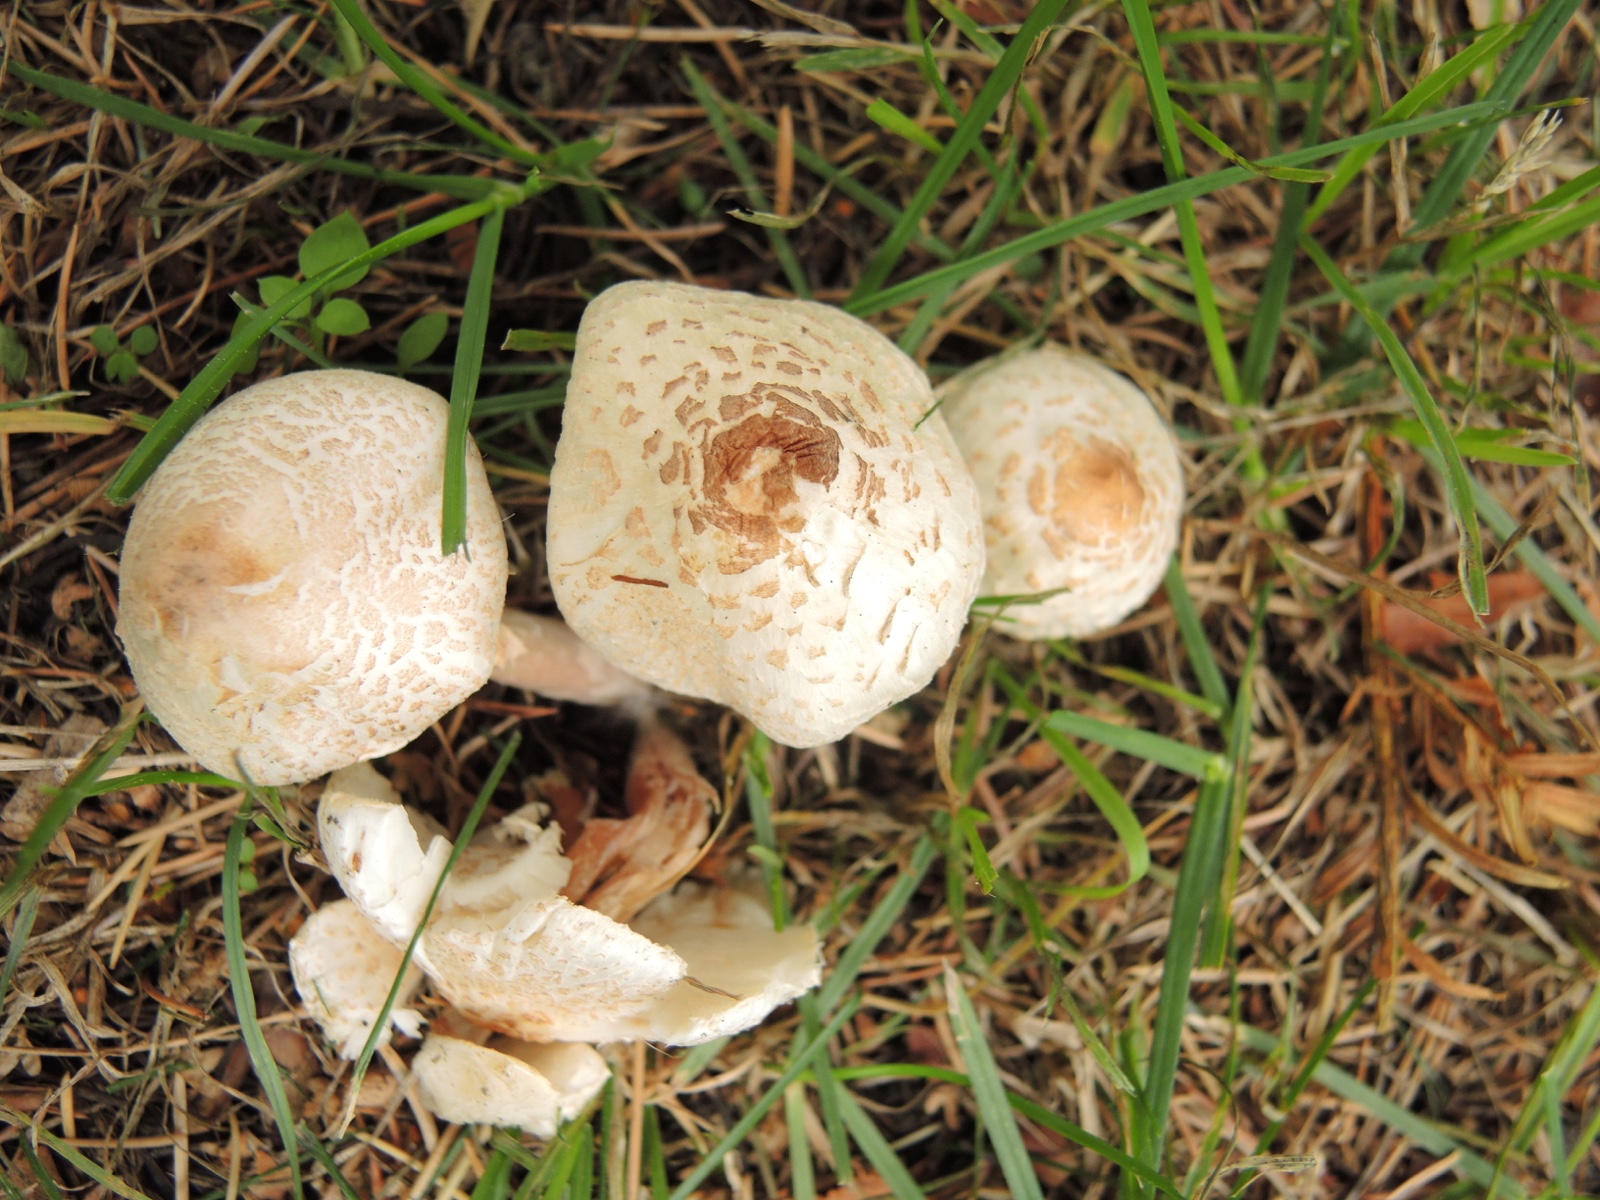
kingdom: Fungi
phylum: Basidiomycota
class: Agaricomycetes
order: Agaricales
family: Agaricaceae
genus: Lepiota
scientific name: Lepiota cristata
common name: stinkende parasolhat
